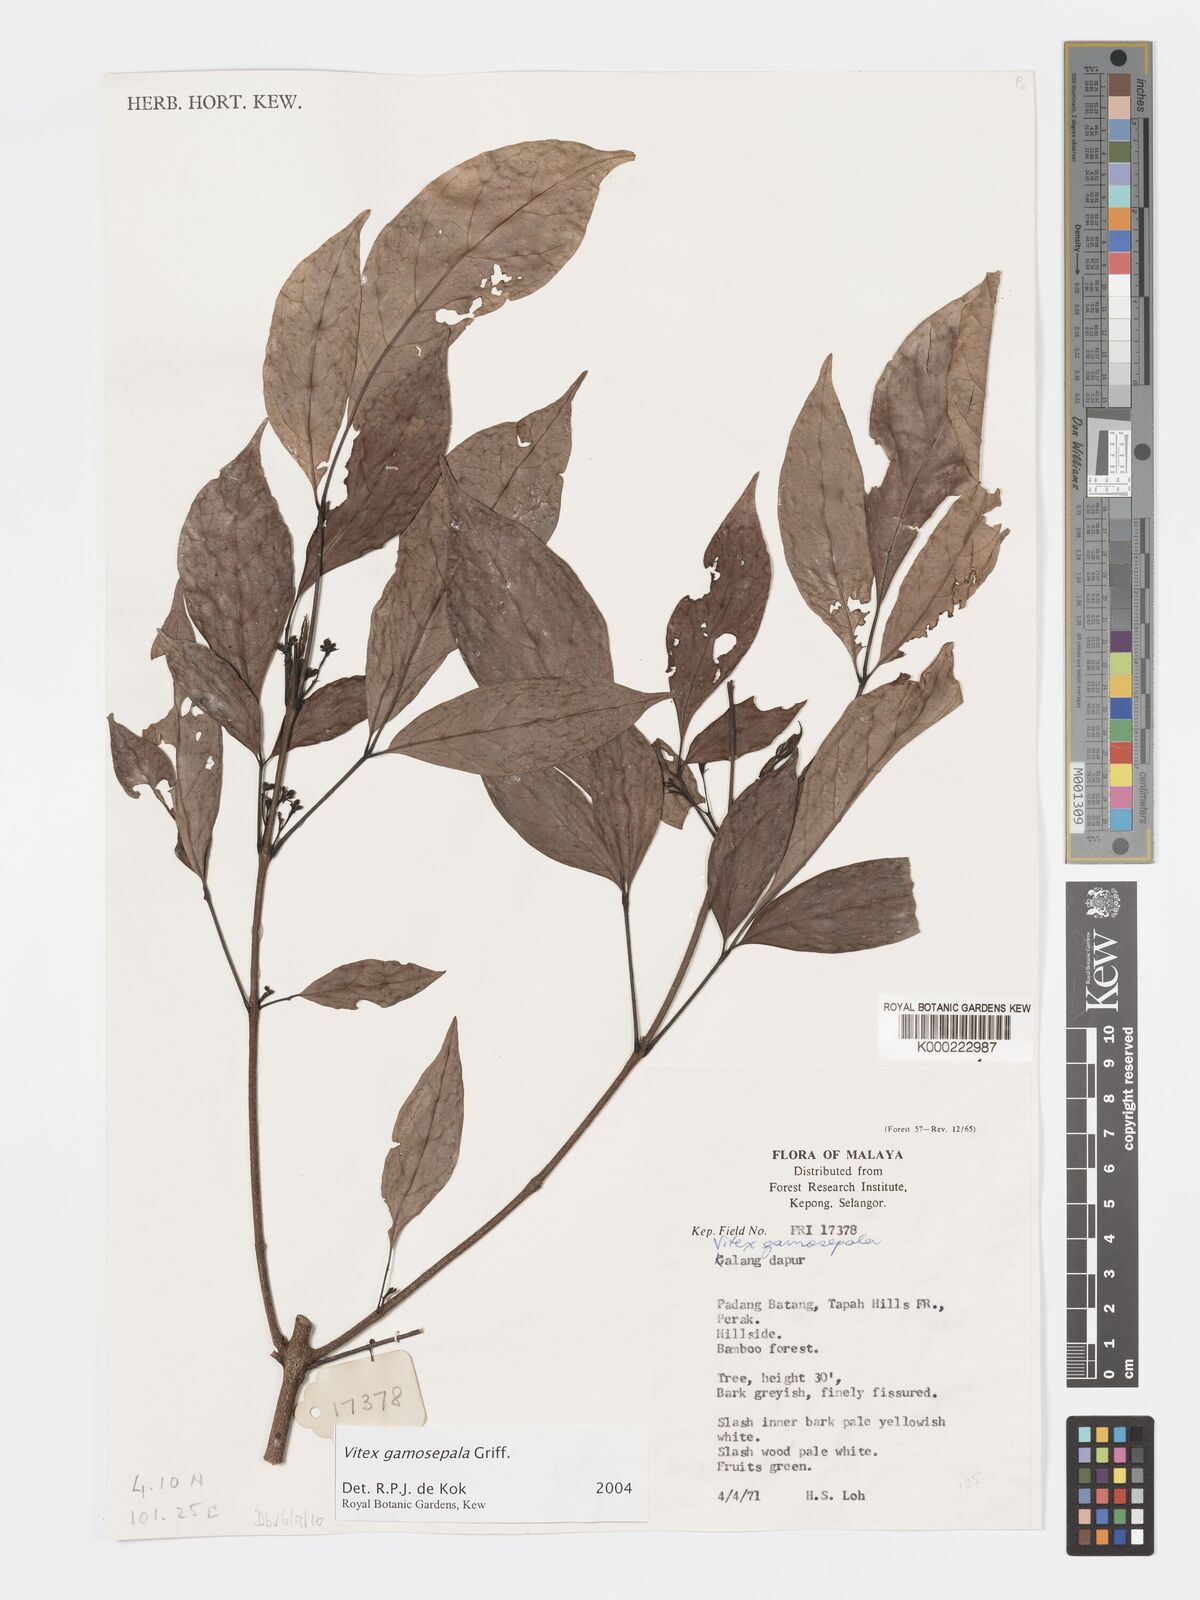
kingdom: Plantae
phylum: Tracheophyta
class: Magnoliopsida
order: Lamiales
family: Lamiaceae
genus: Vitex
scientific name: Vitex gamosepala
